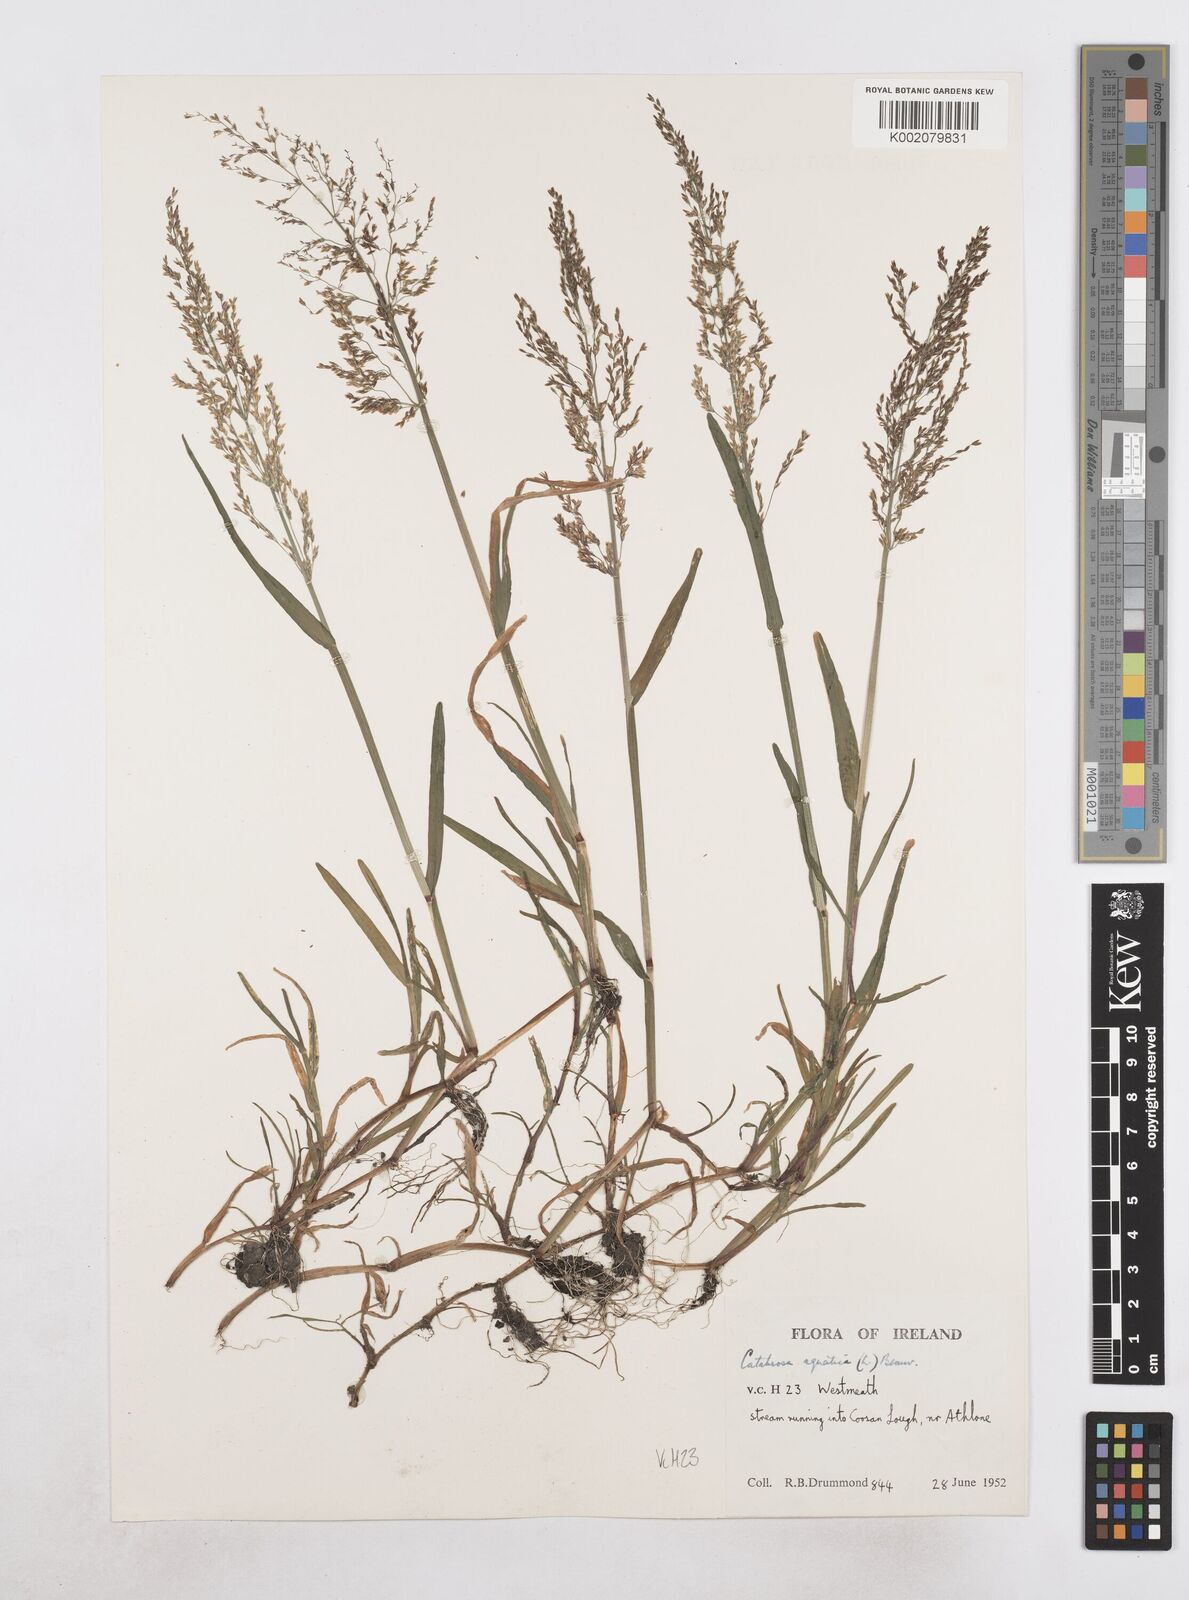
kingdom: Plantae
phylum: Tracheophyta
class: Liliopsida
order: Poales
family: Poaceae
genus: Catabrosa
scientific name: Catabrosa aquatica
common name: Whorl-grass
